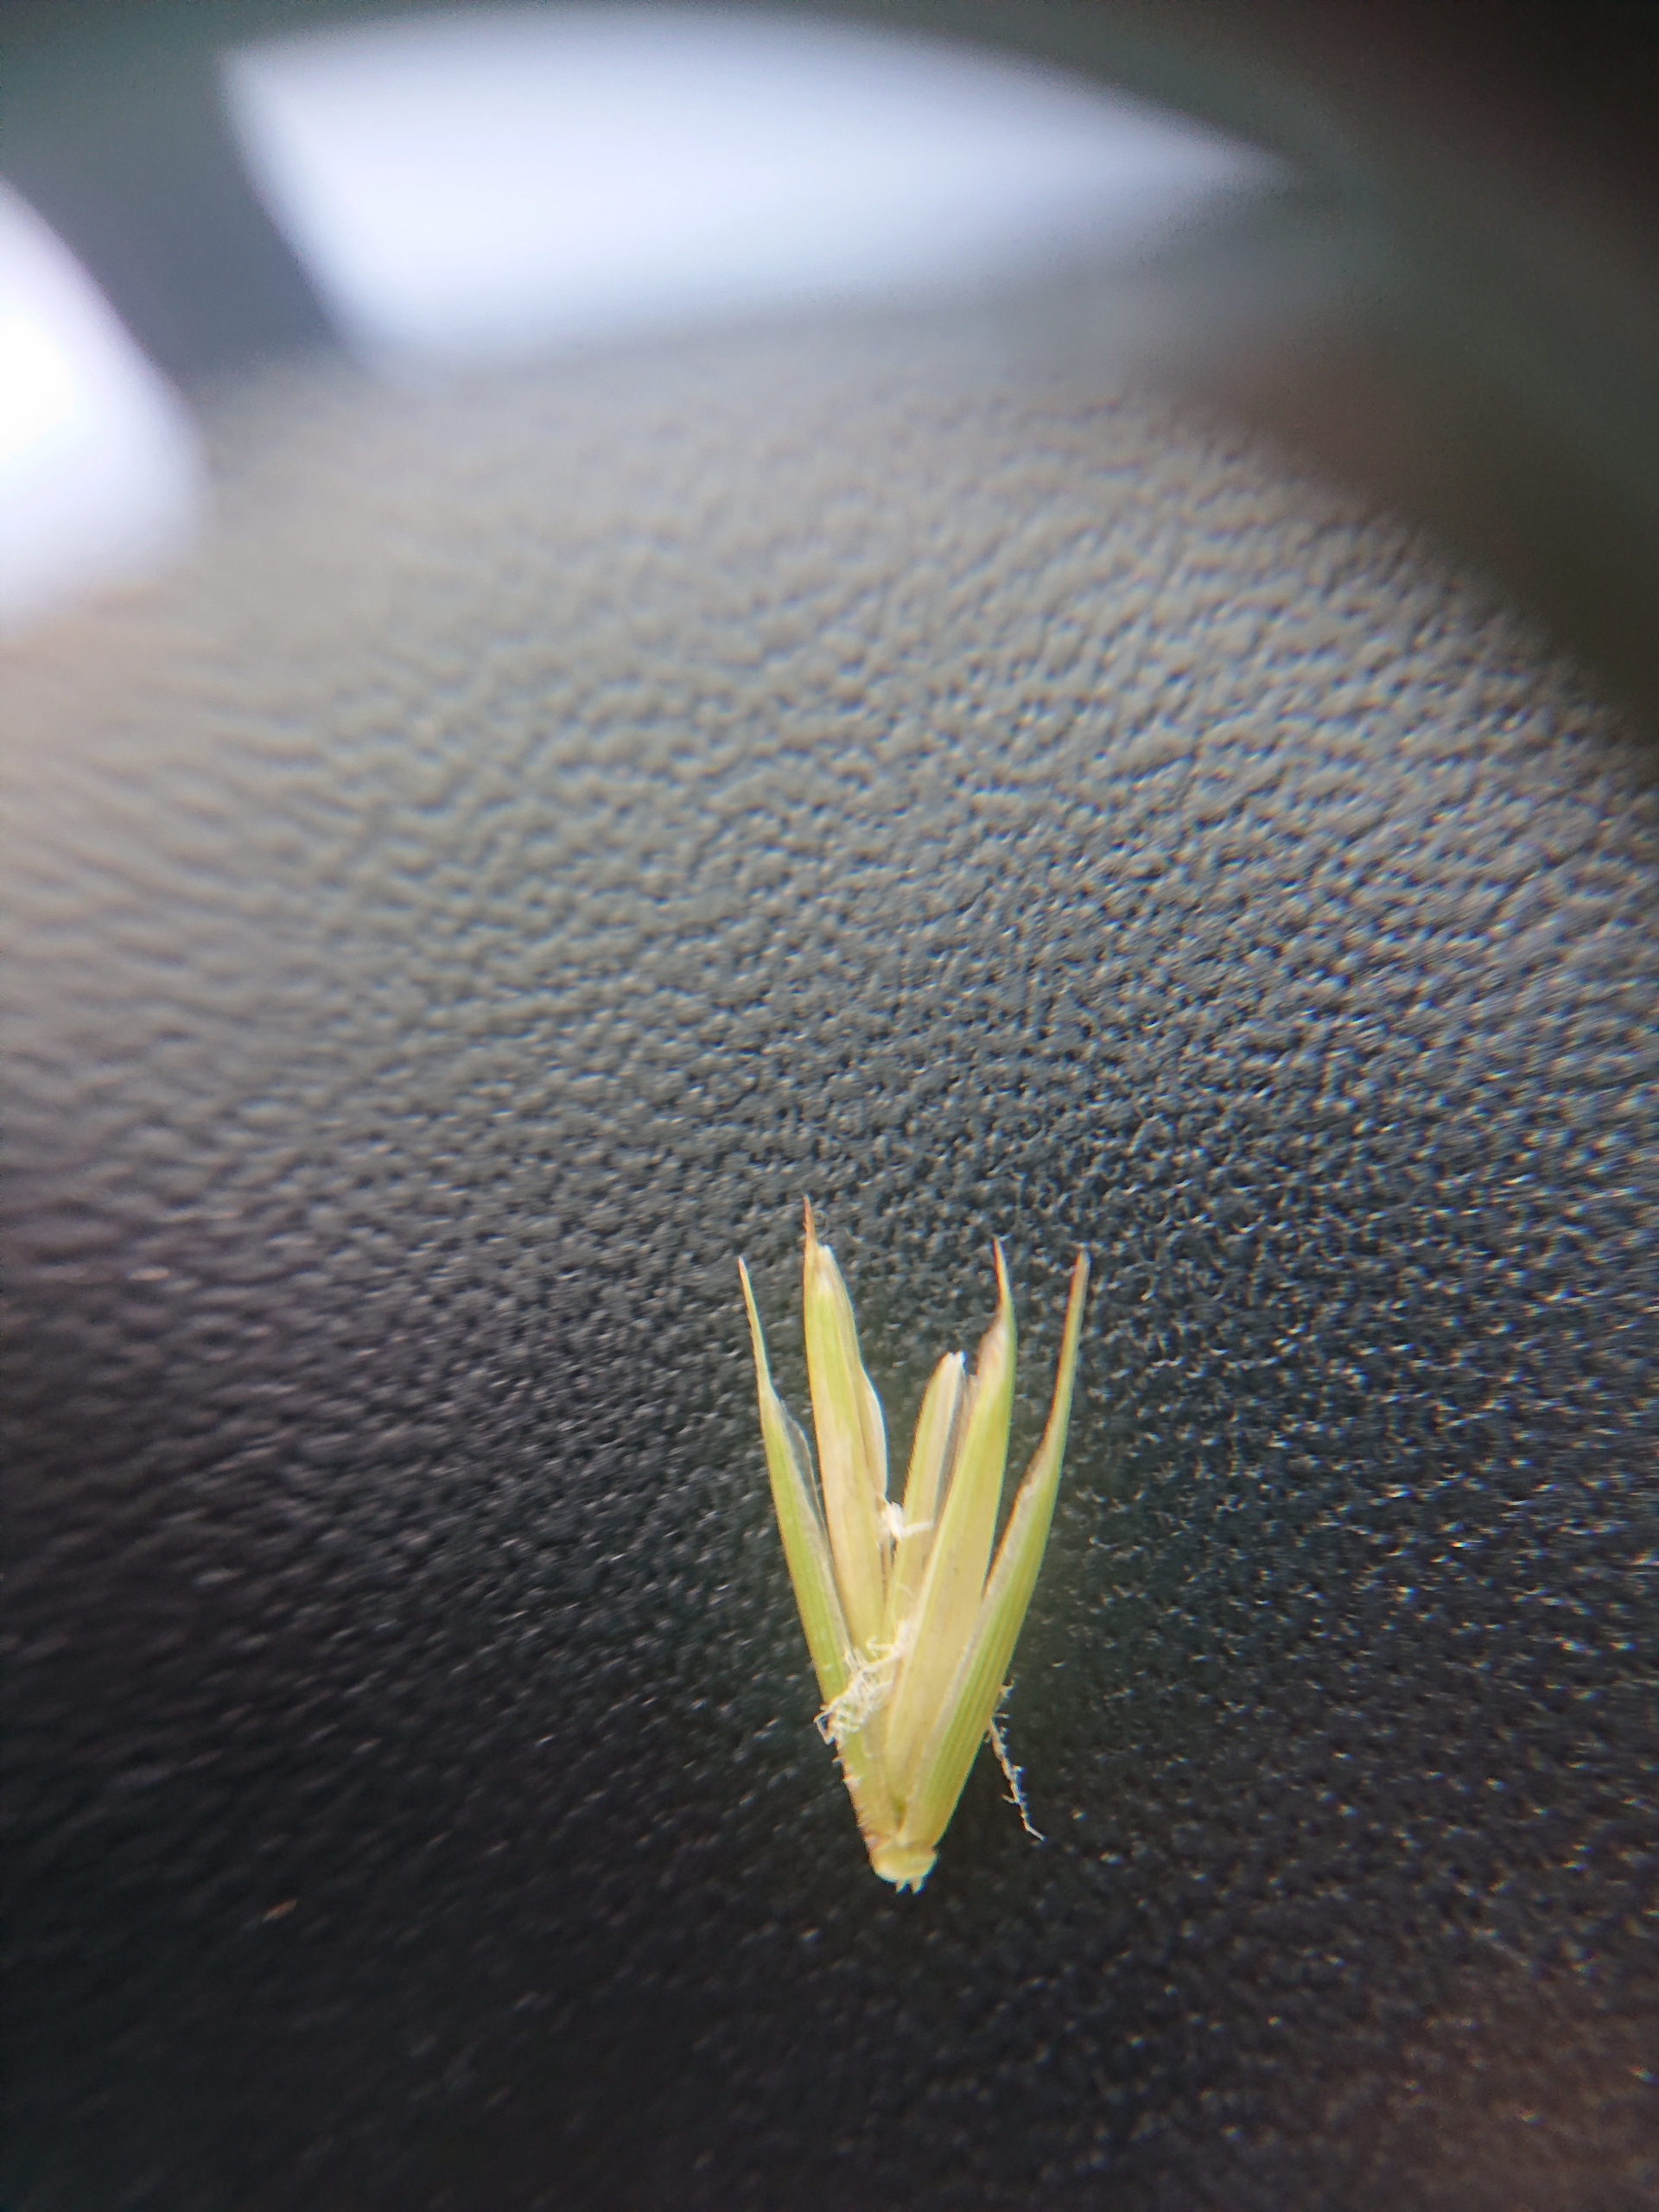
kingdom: Plantae
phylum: Tracheophyta
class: Liliopsida
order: Poales
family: Poaceae
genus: Elymus
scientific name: Elymus repens
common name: Almindelig kvik
